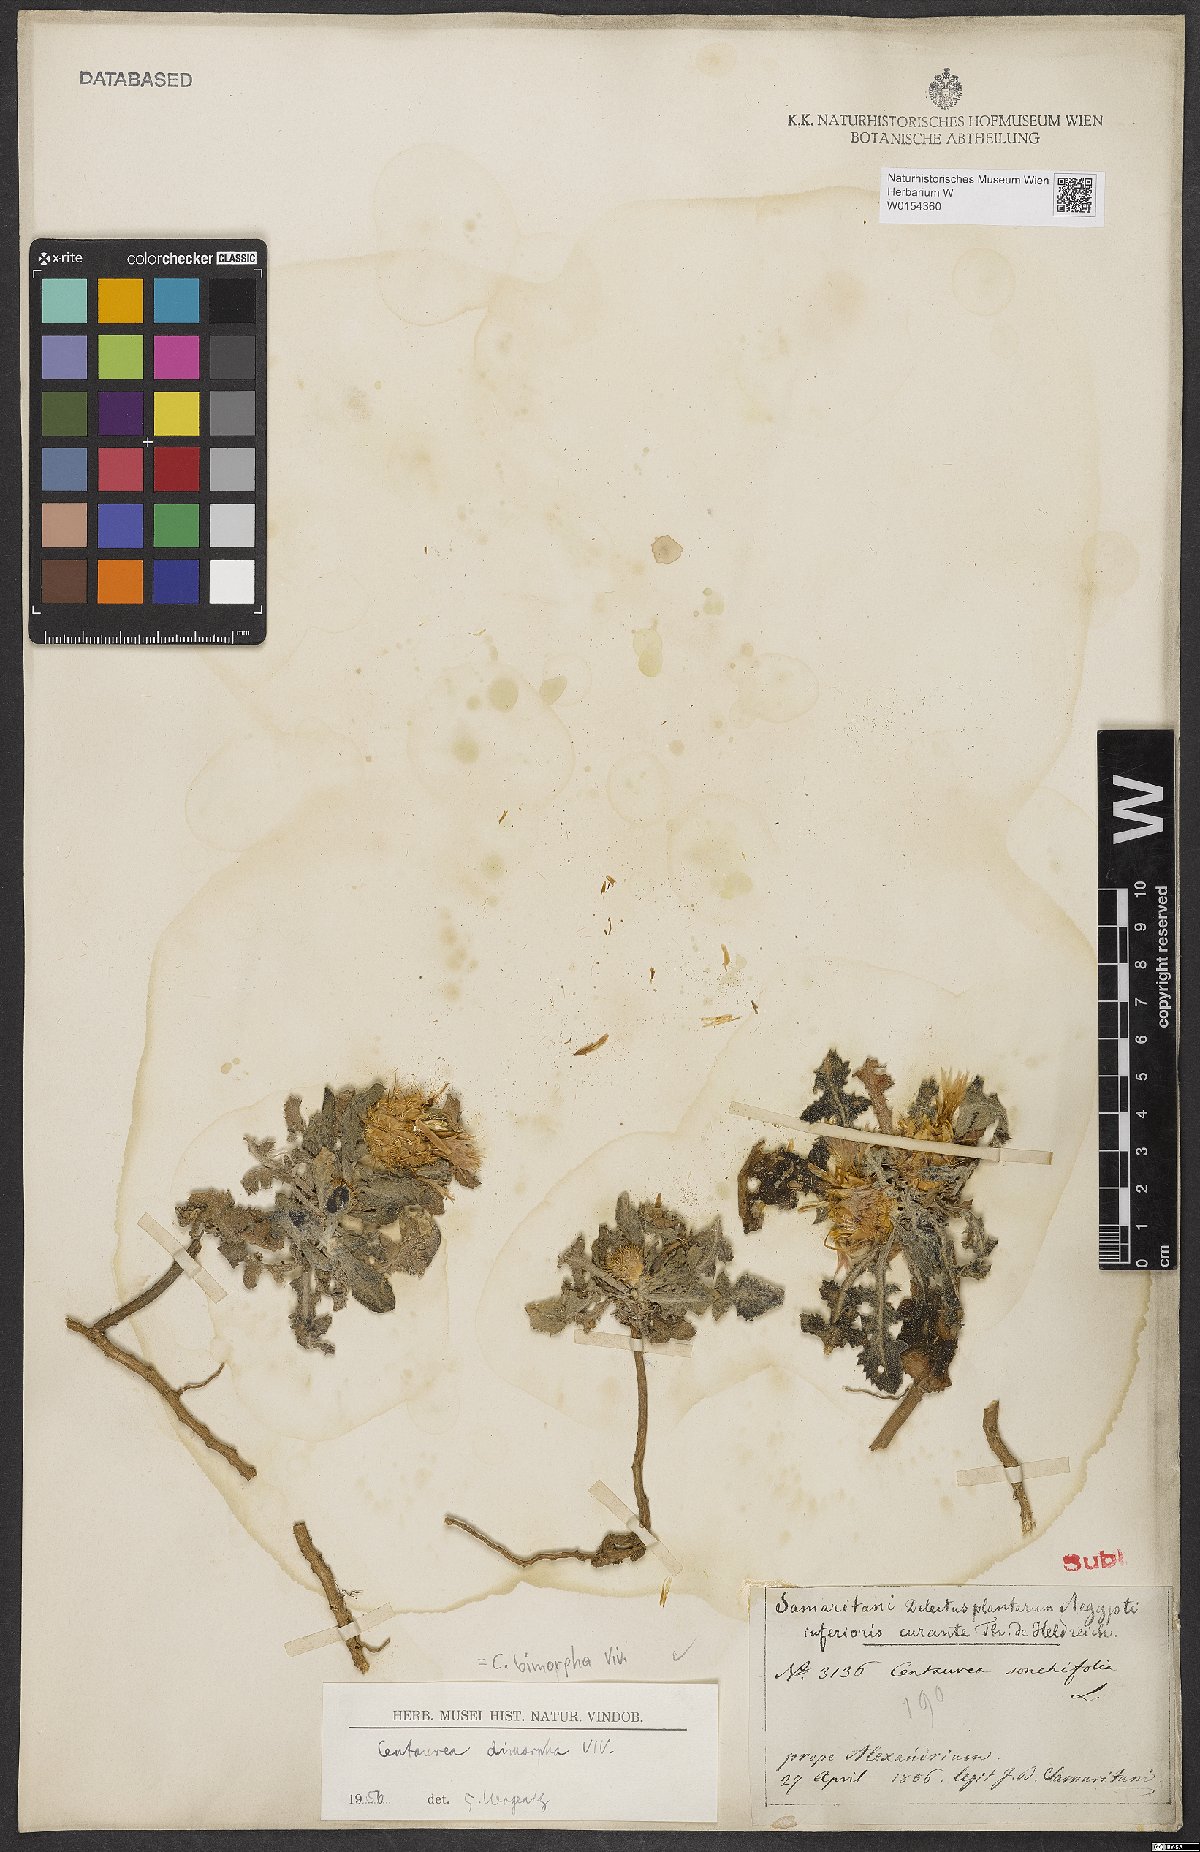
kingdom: Plantae
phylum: Tracheophyta
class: Magnoliopsida
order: Asterales
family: Asteraceae
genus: Centaurea
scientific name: Centaurea bimorpha
